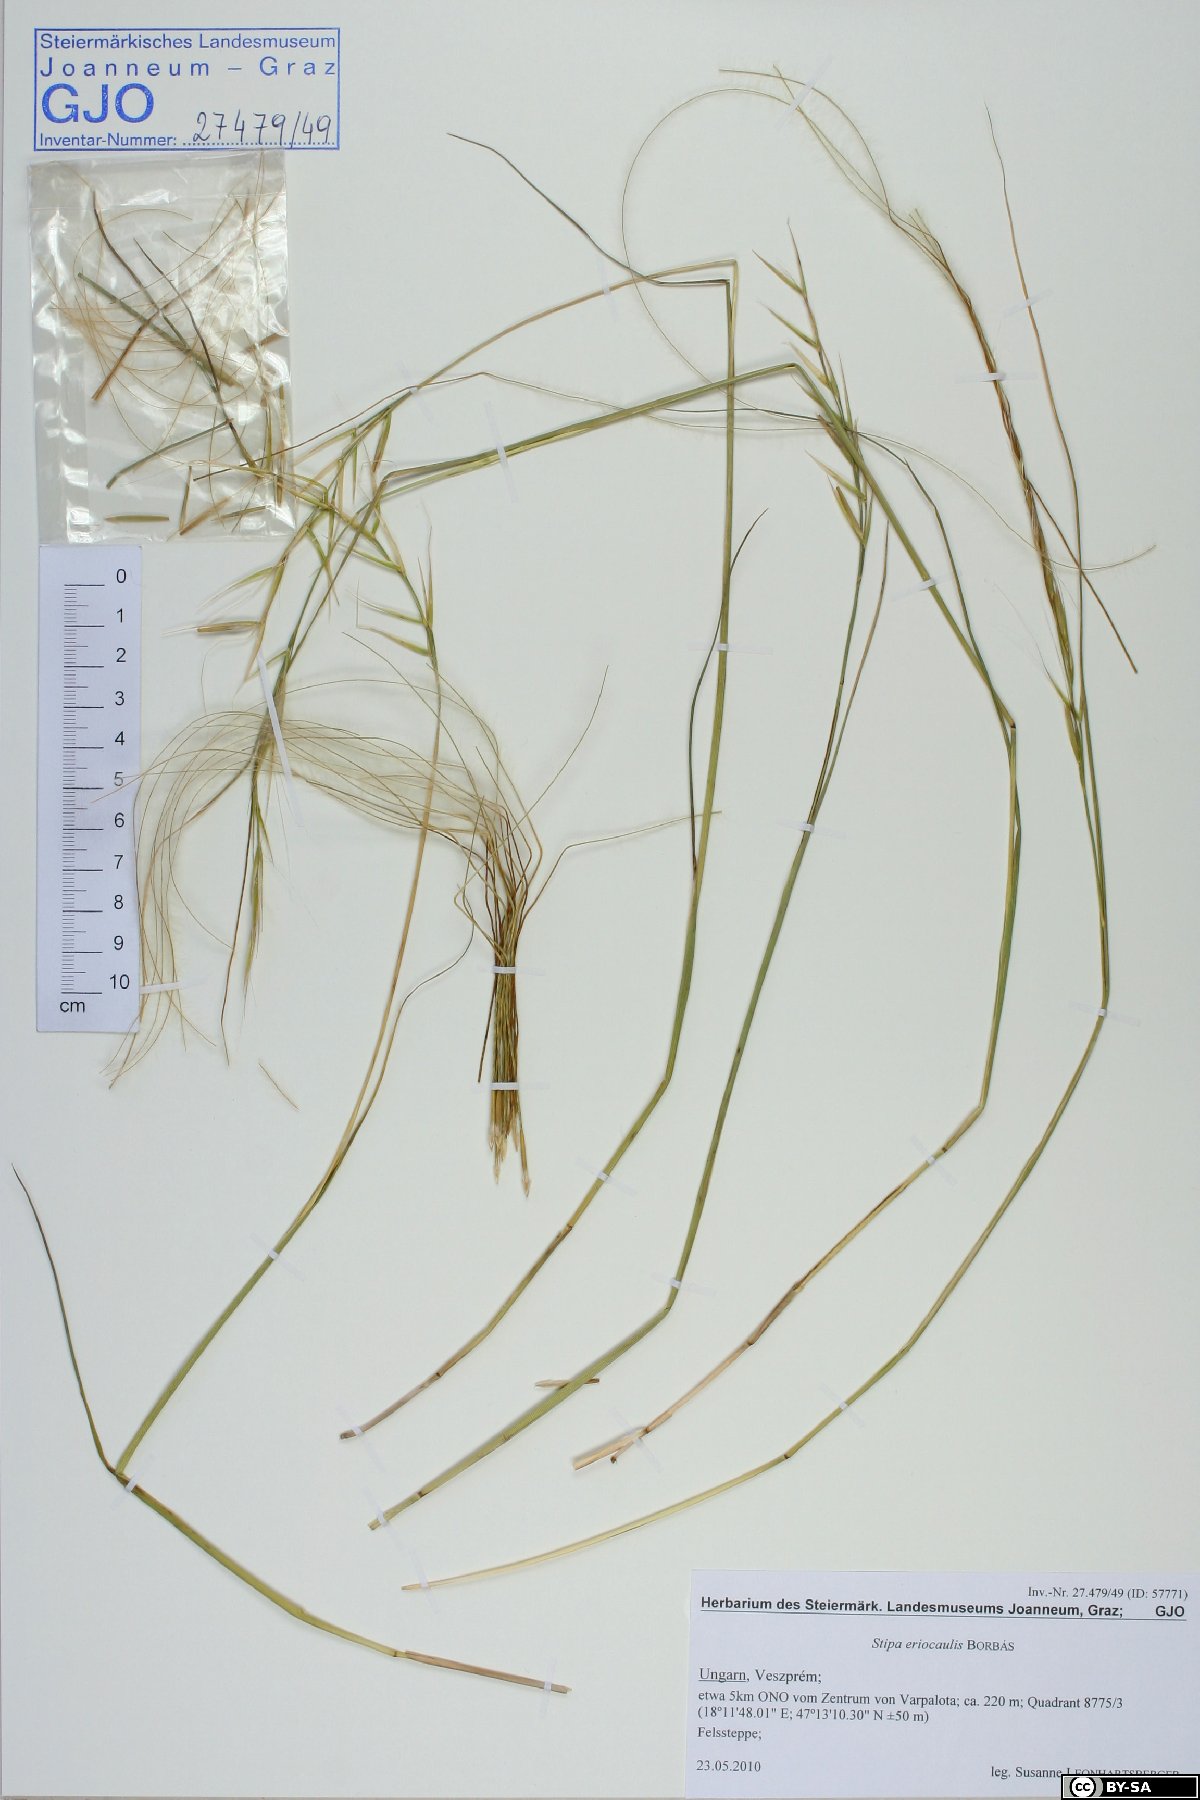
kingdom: Plantae
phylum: Tracheophyta
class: Liliopsida
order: Poales
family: Poaceae
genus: Stipa
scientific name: Stipa pennata
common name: European feather grass
